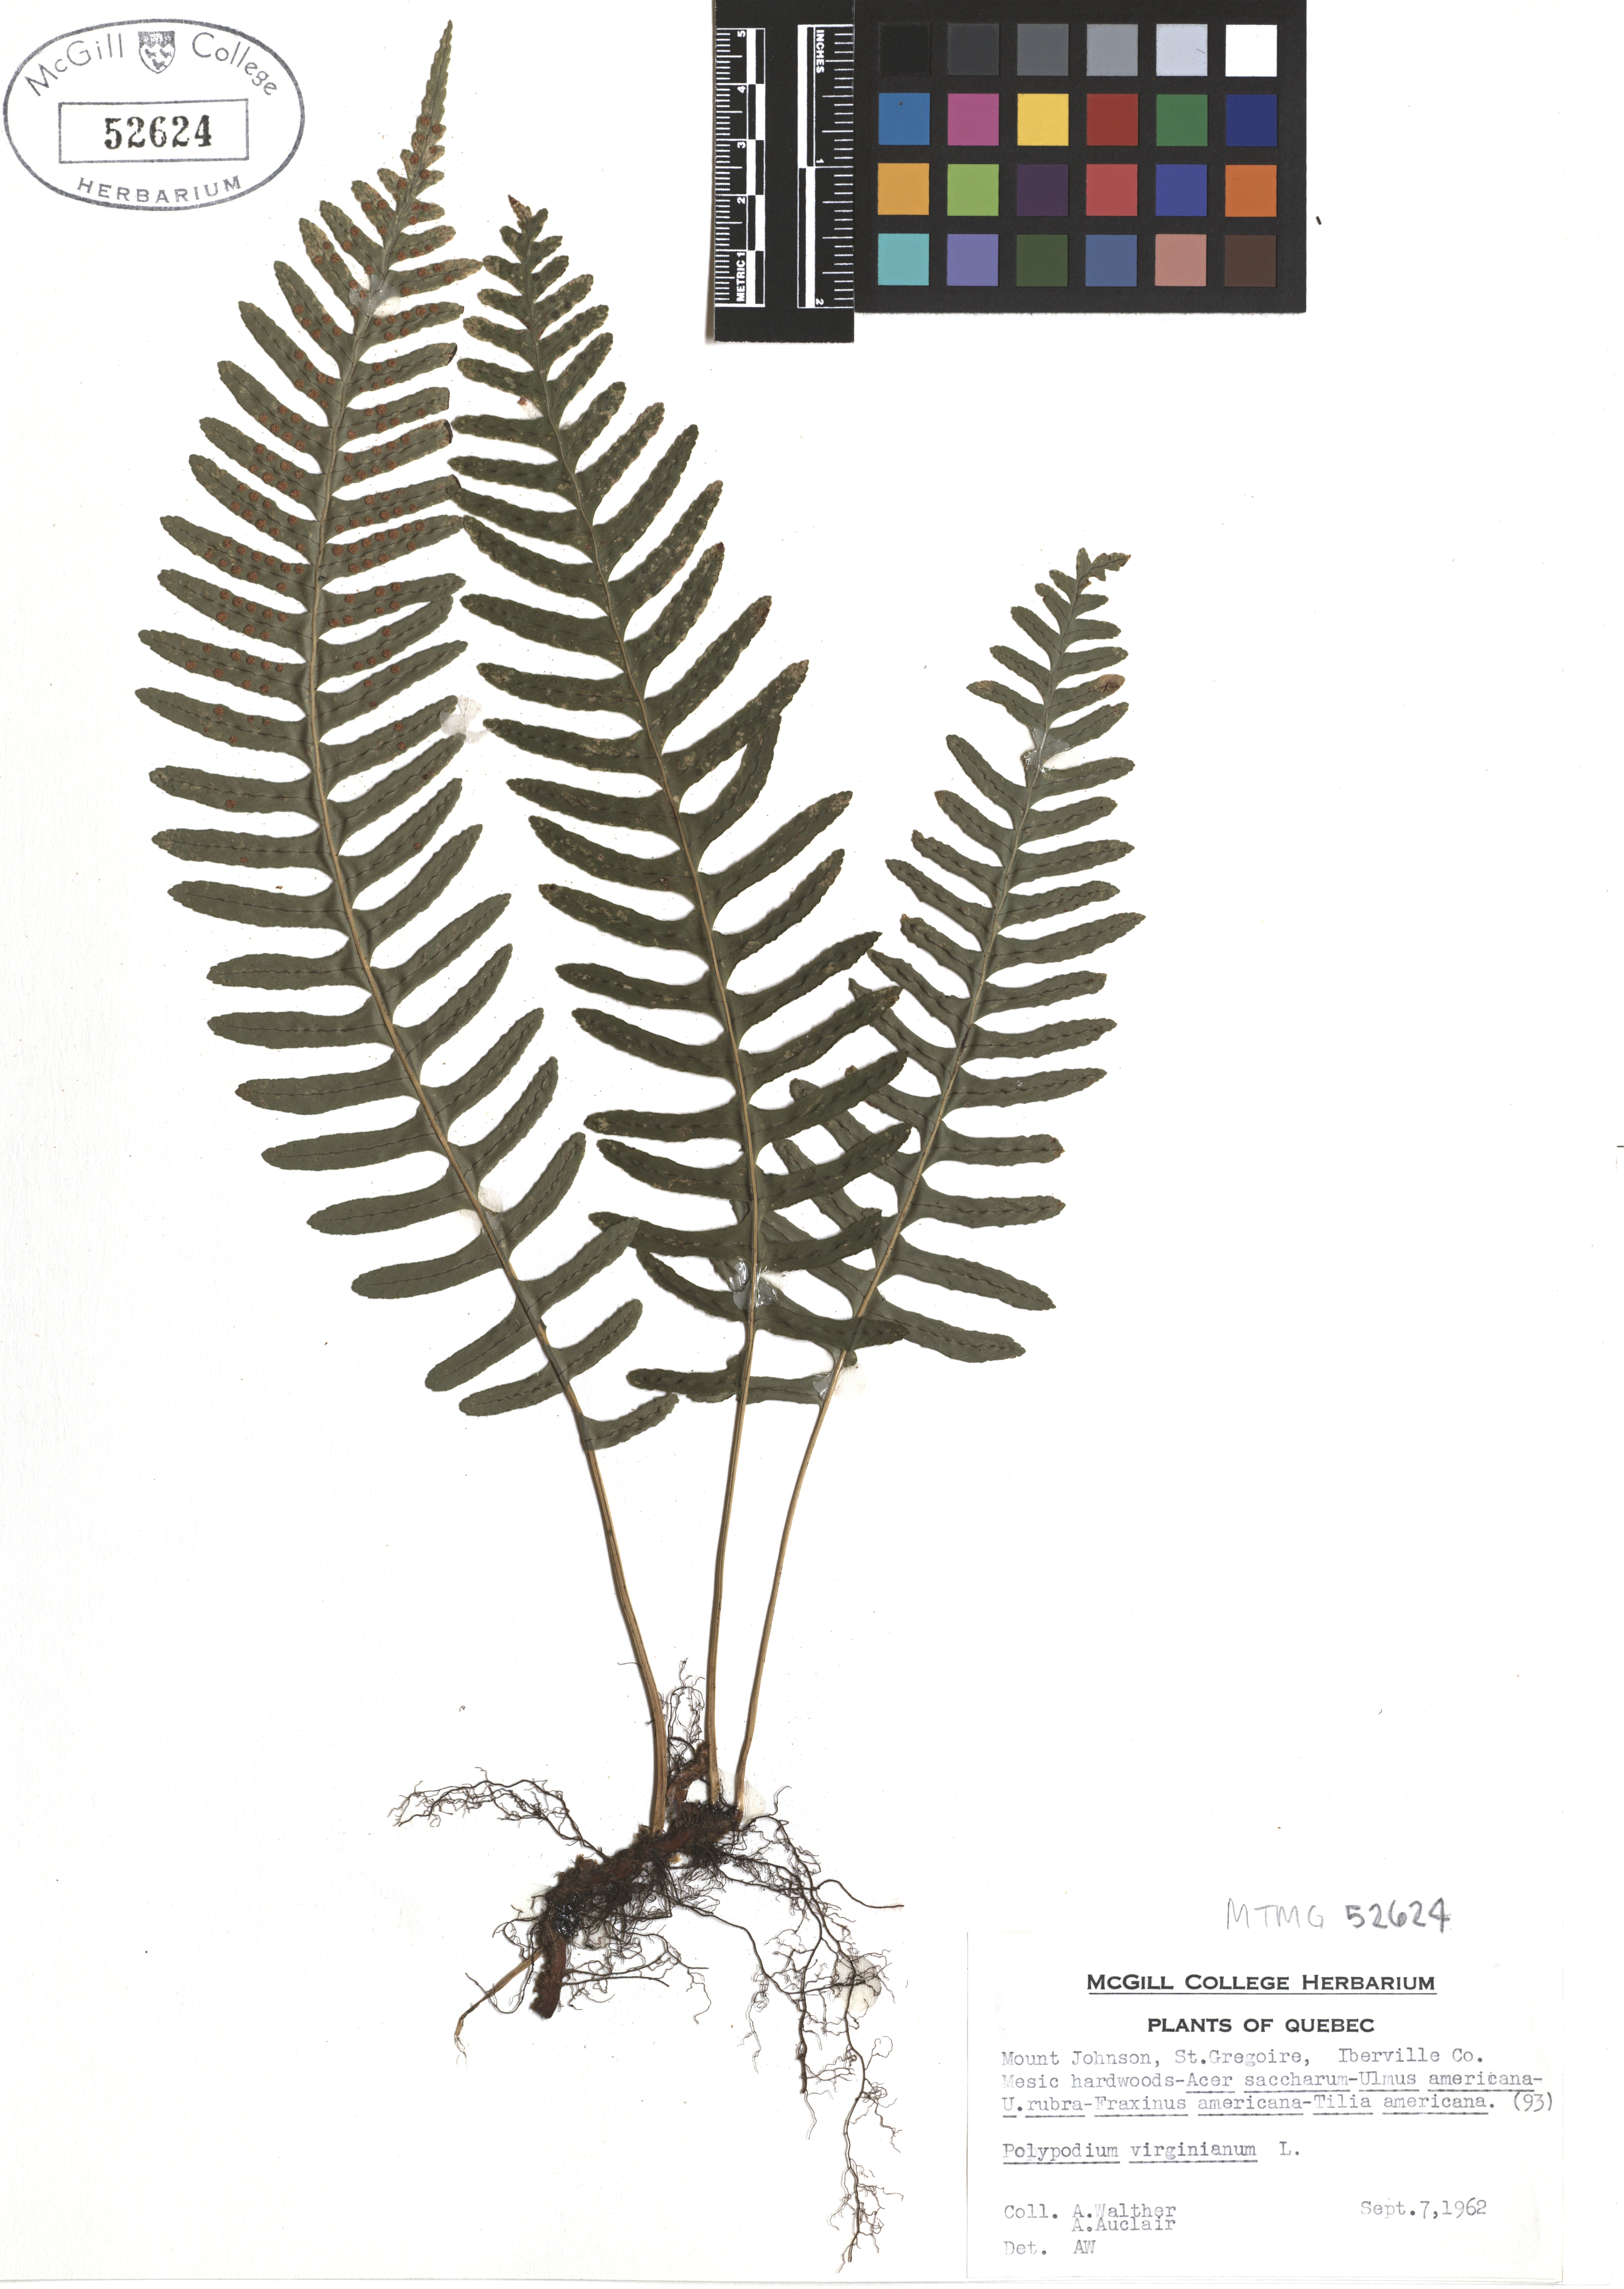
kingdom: Plantae
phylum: Tracheophyta
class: Polypodiopsida
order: Polypodiales
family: Polypodiaceae
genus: Polypodium
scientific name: Polypodium virginianum
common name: American wall fern
